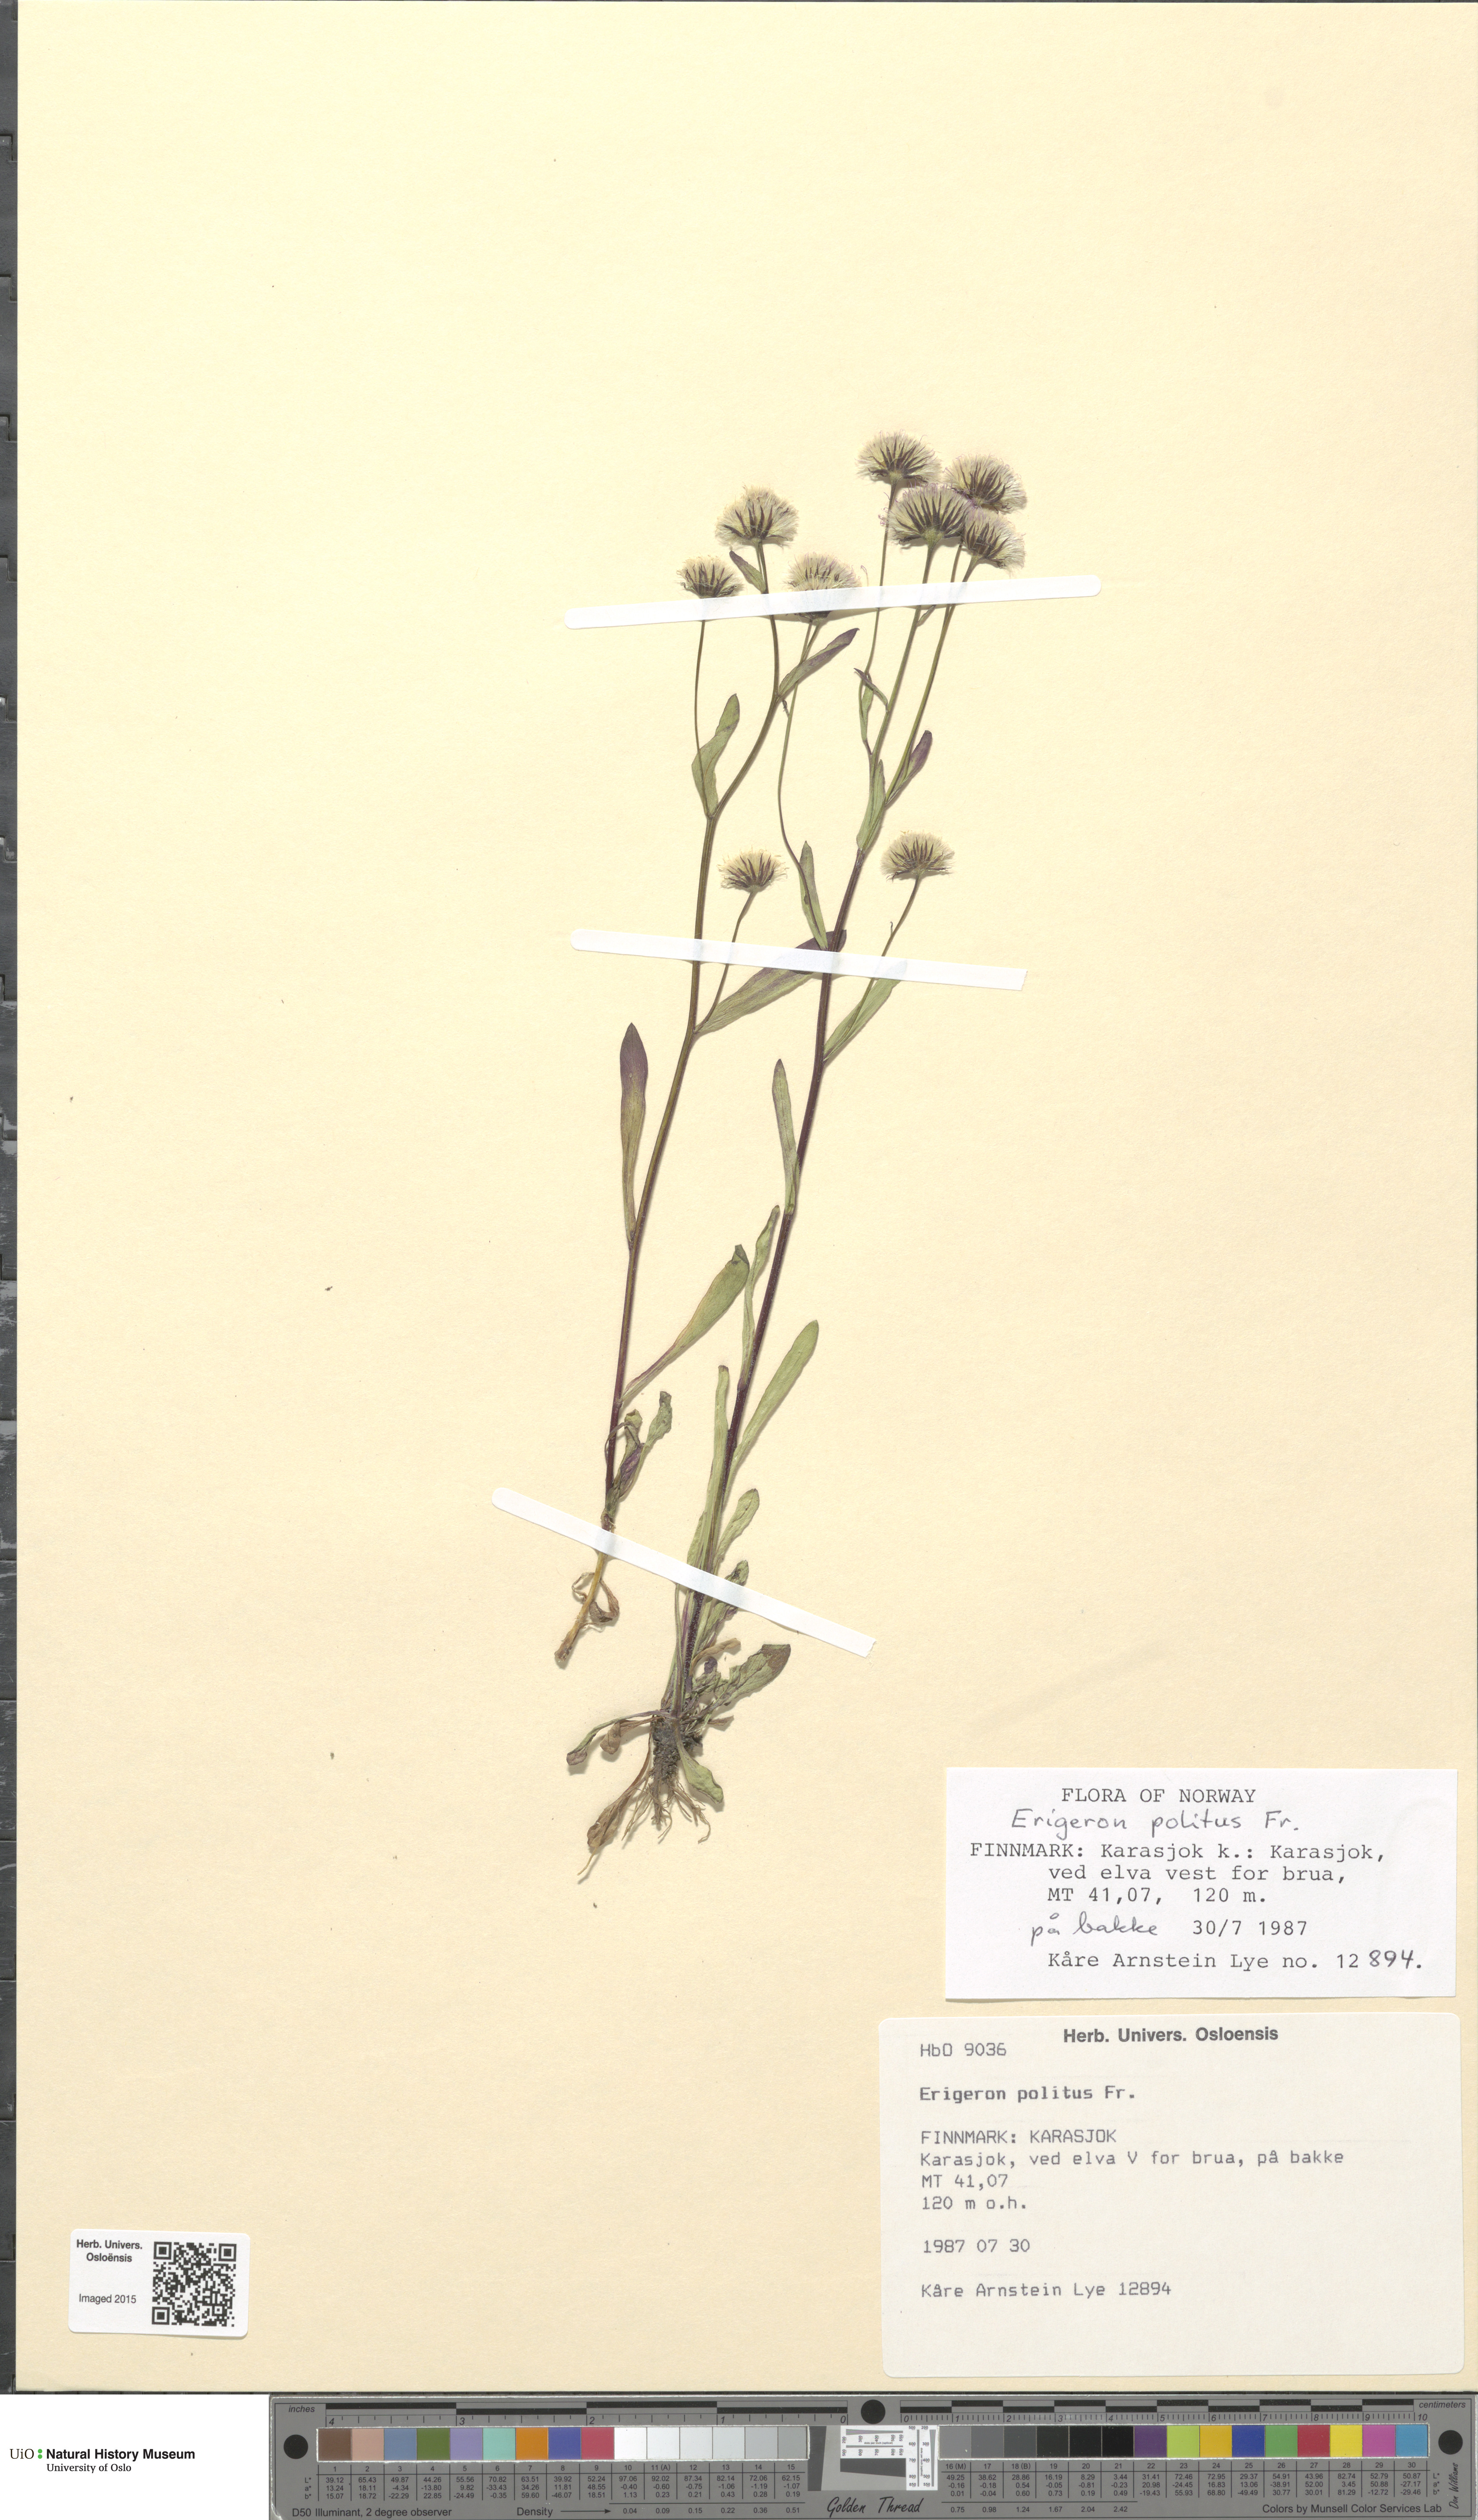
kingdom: Plantae
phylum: Tracheophyta
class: Magnoliopsida
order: Asterales
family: Asteraceae
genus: Erigeron
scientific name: Erigeron politus
